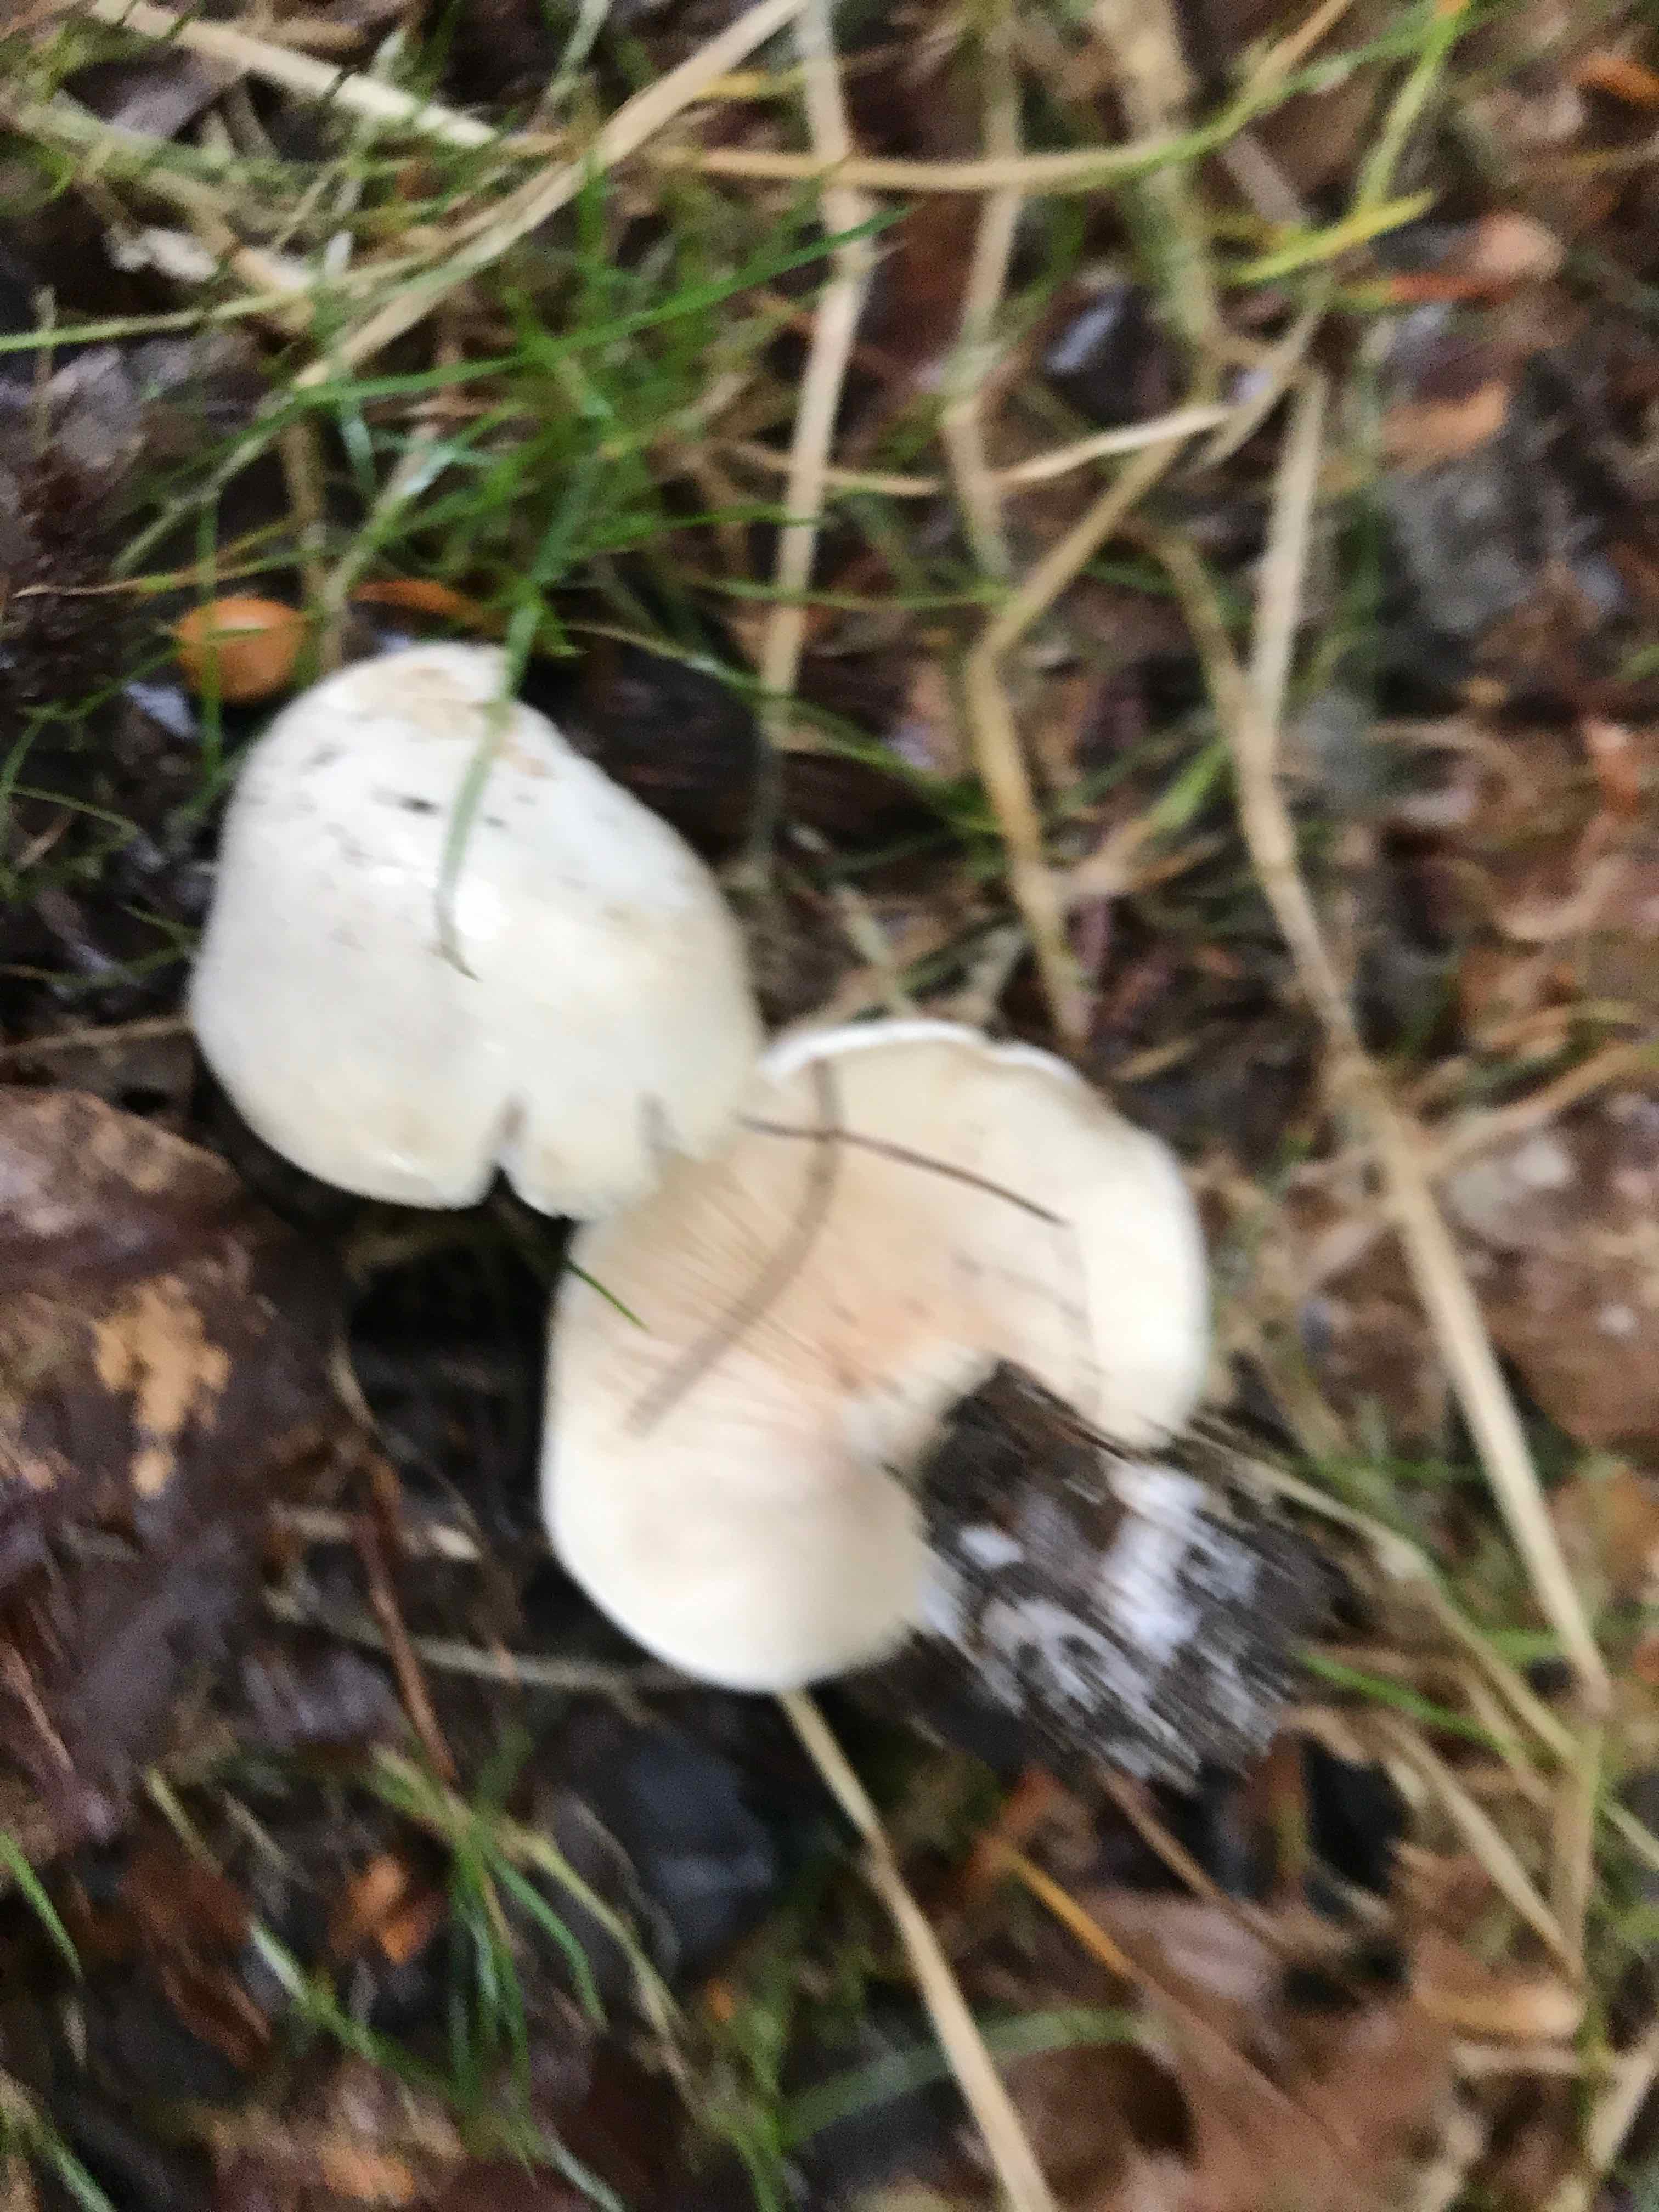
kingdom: Fungi
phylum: Basidiomycota
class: Agaricomycetes
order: Agaricales
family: Entolomataceae
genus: Clitopilus
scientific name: Clitopilus prunulus
